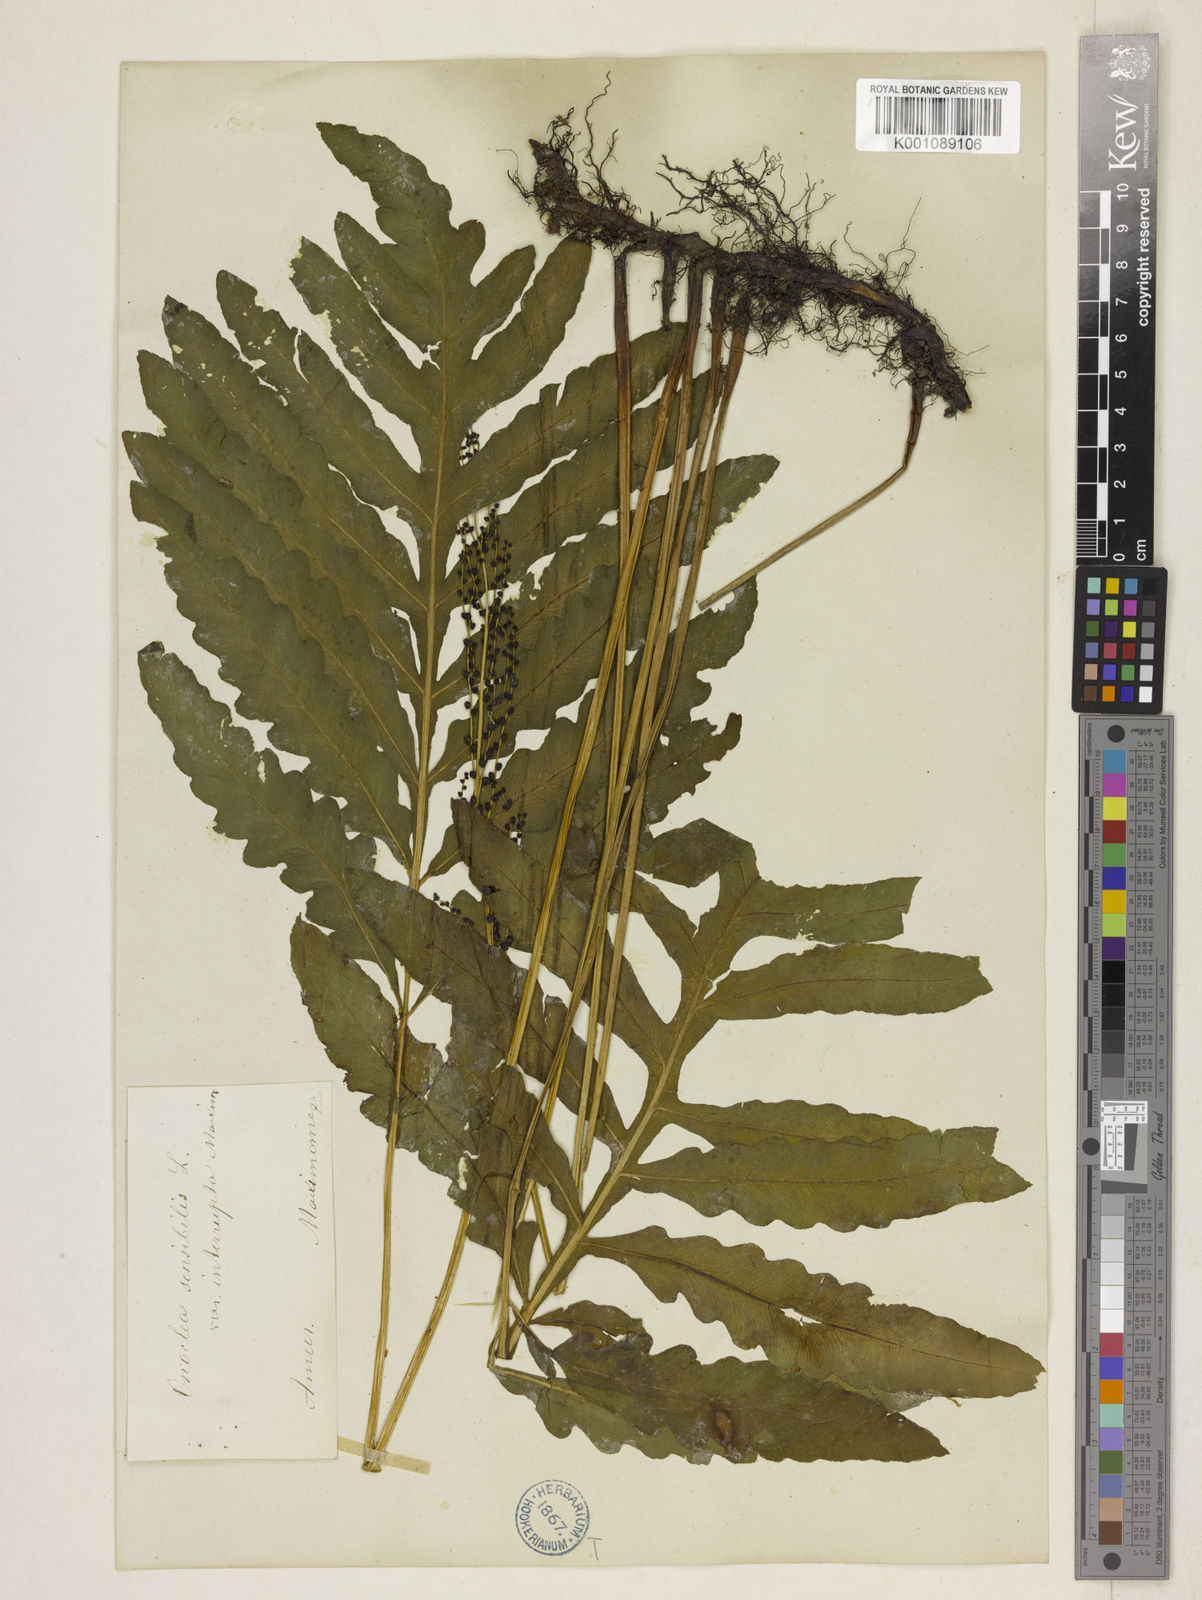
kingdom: Plantae
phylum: Tracheophyta
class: Polypodiopsida
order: Polypodiales
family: Onocleaceae
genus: Onoclea
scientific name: Onoclea sensibilis
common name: Sensitive fern
